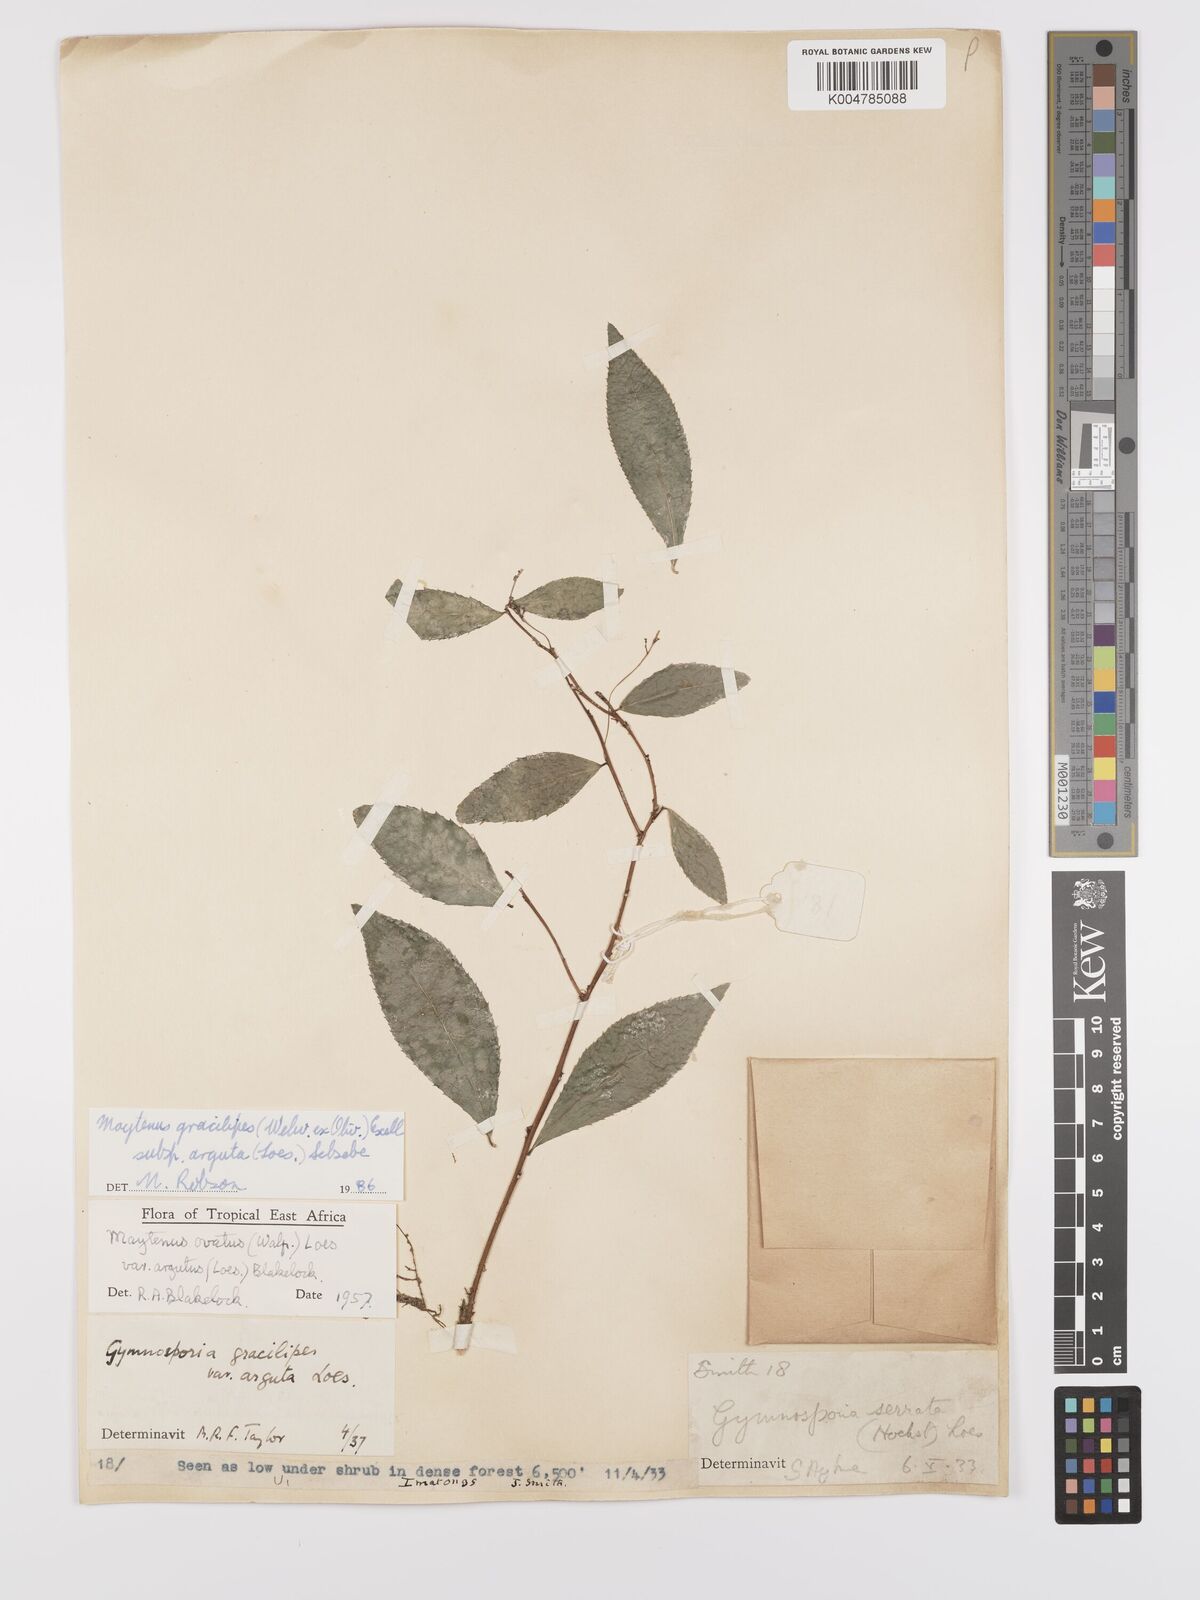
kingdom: Plantae
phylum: Tracheophyta
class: Magnoliopsida
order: Celastrales
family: Celastraceae
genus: Gymnosporia
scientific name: Gymnosporia gracilipes
